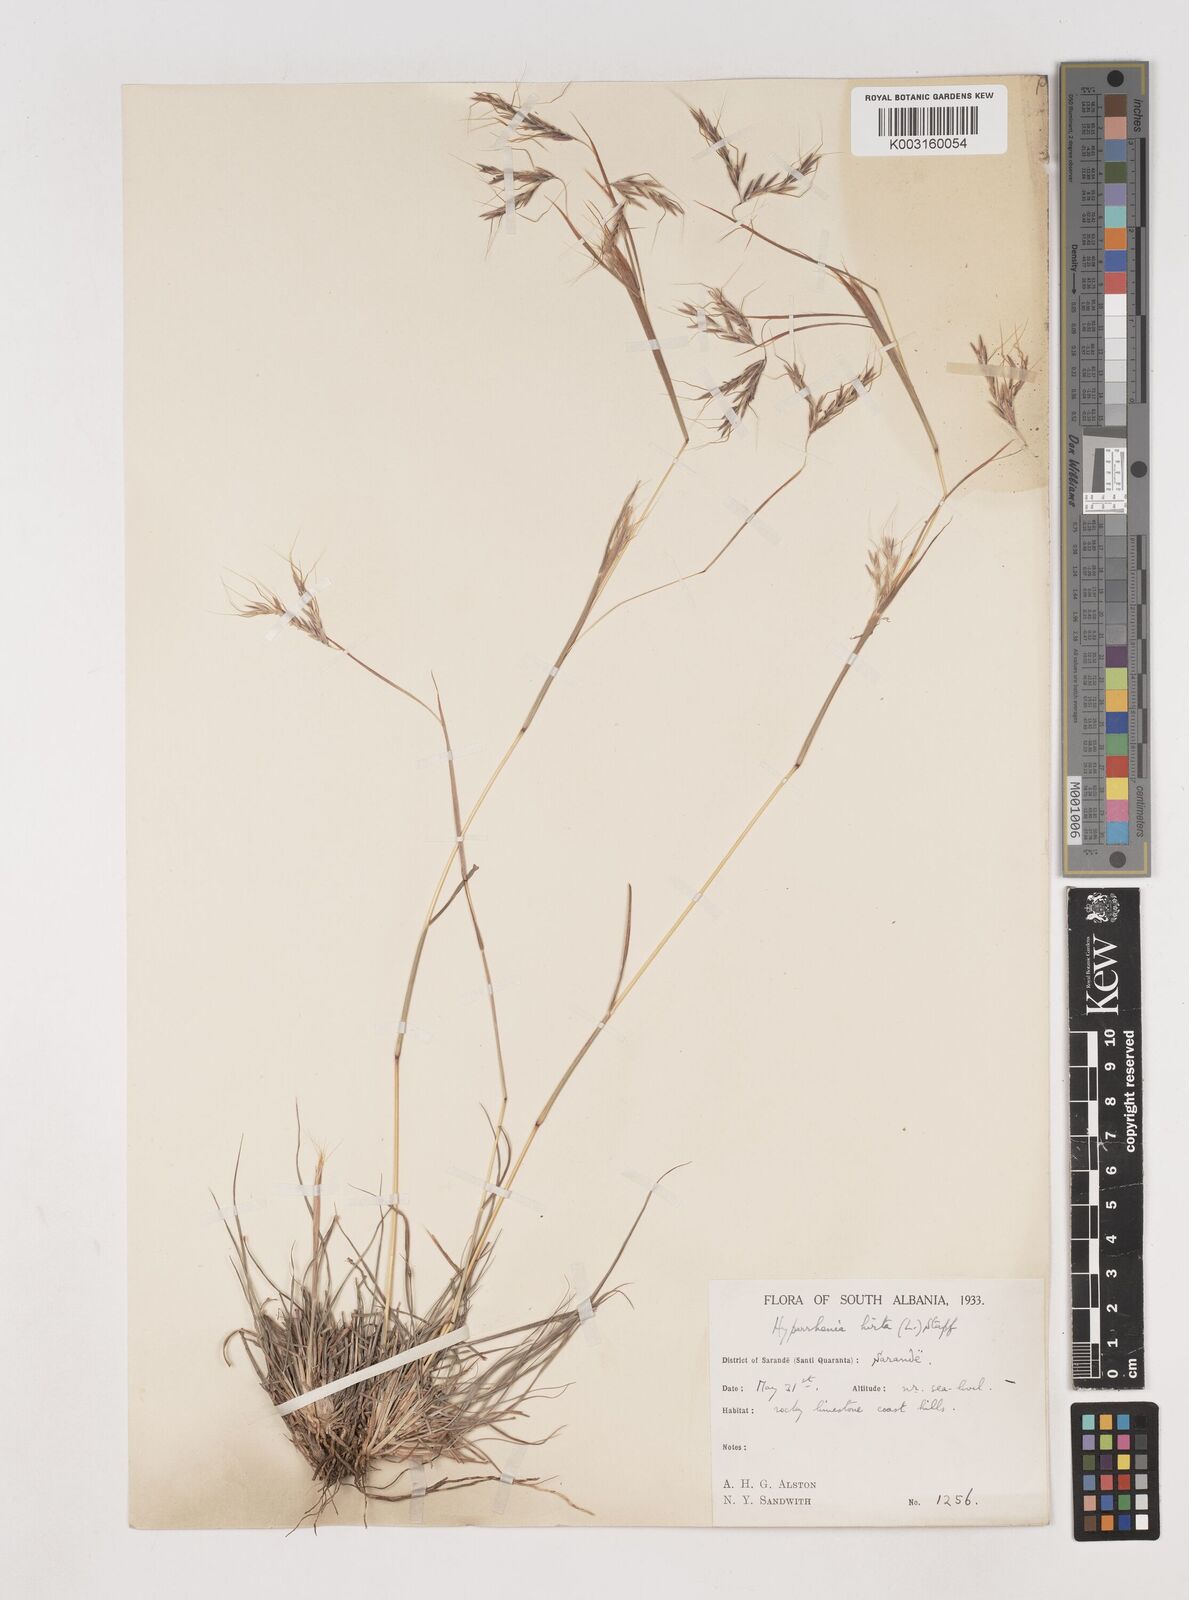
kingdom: Plantae
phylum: Tracheophyta
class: Liliopsida
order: Poales
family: Poaceae
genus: Hyparrhenia
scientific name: Hyparrhenia hirta
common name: Thatching grass
